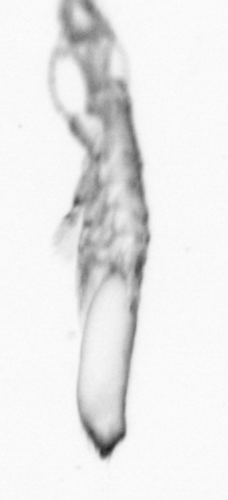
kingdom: Animalia
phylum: Arthropoda
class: Copepoda
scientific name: Copepoda
